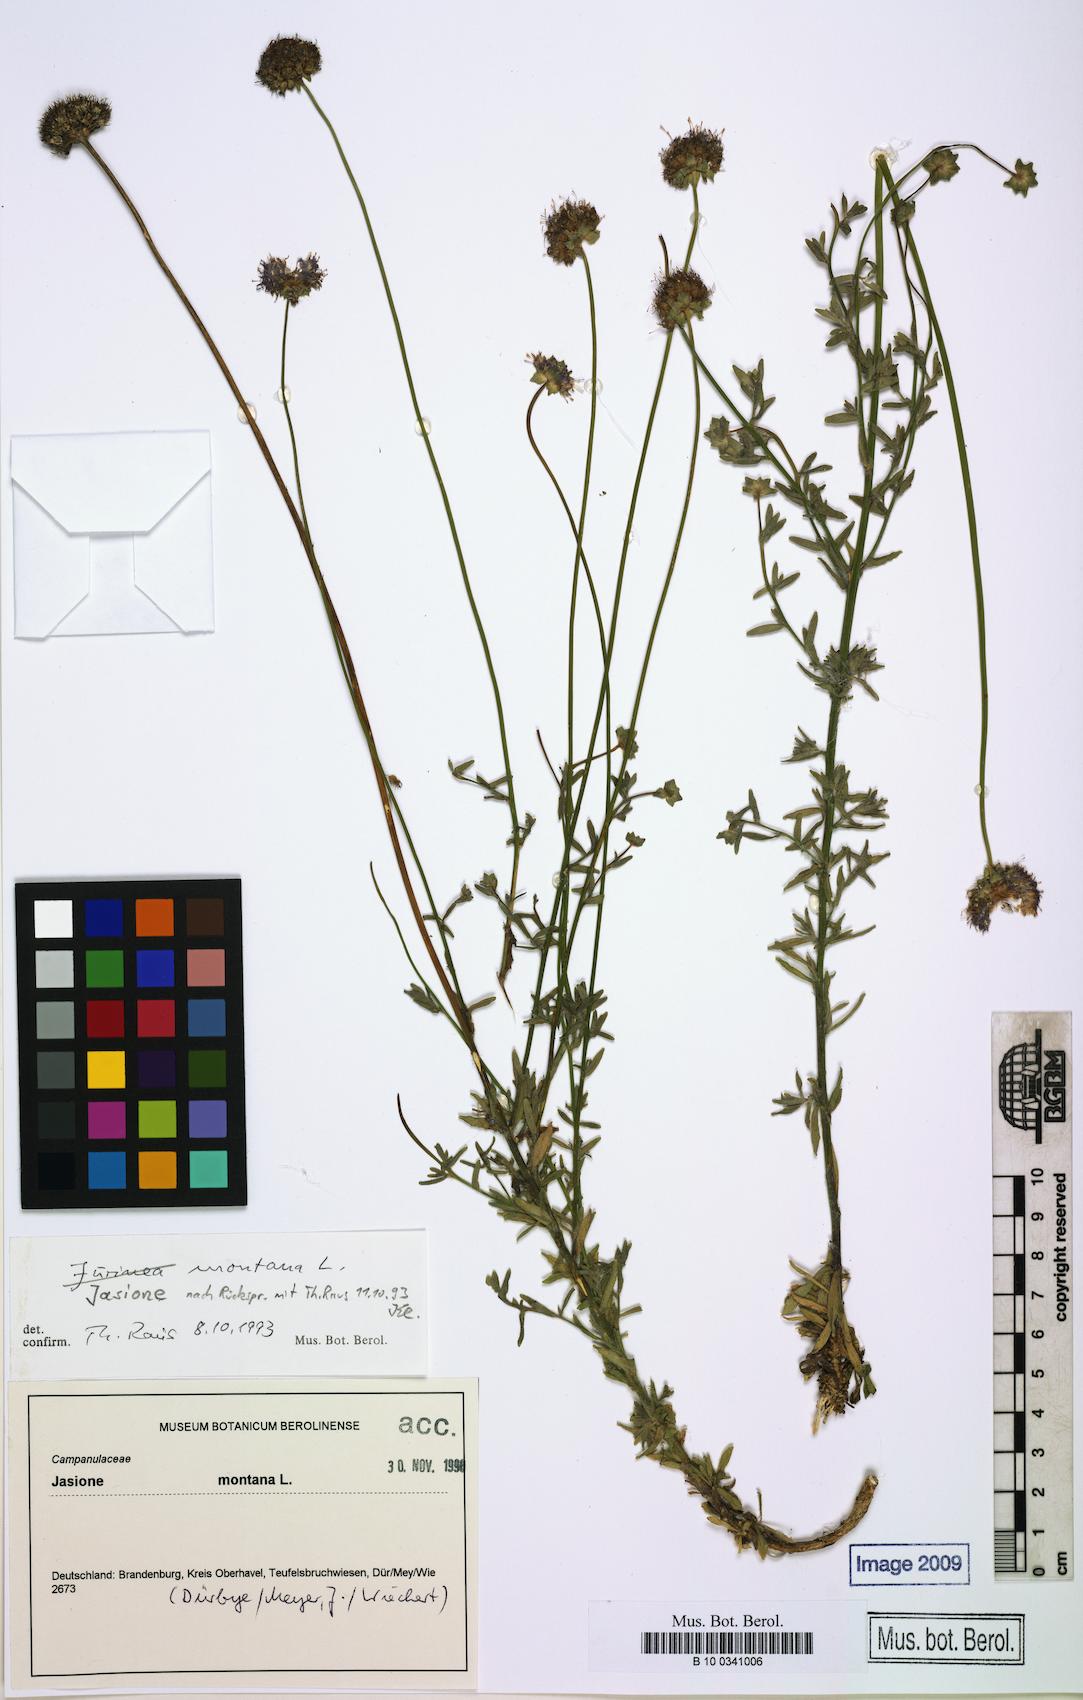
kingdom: Plantae
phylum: Tracheophyta
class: Magnoliopsida
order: Asterales
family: Campanulaceae
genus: Jasione
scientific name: Jasione montana
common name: Sheep's-bit
